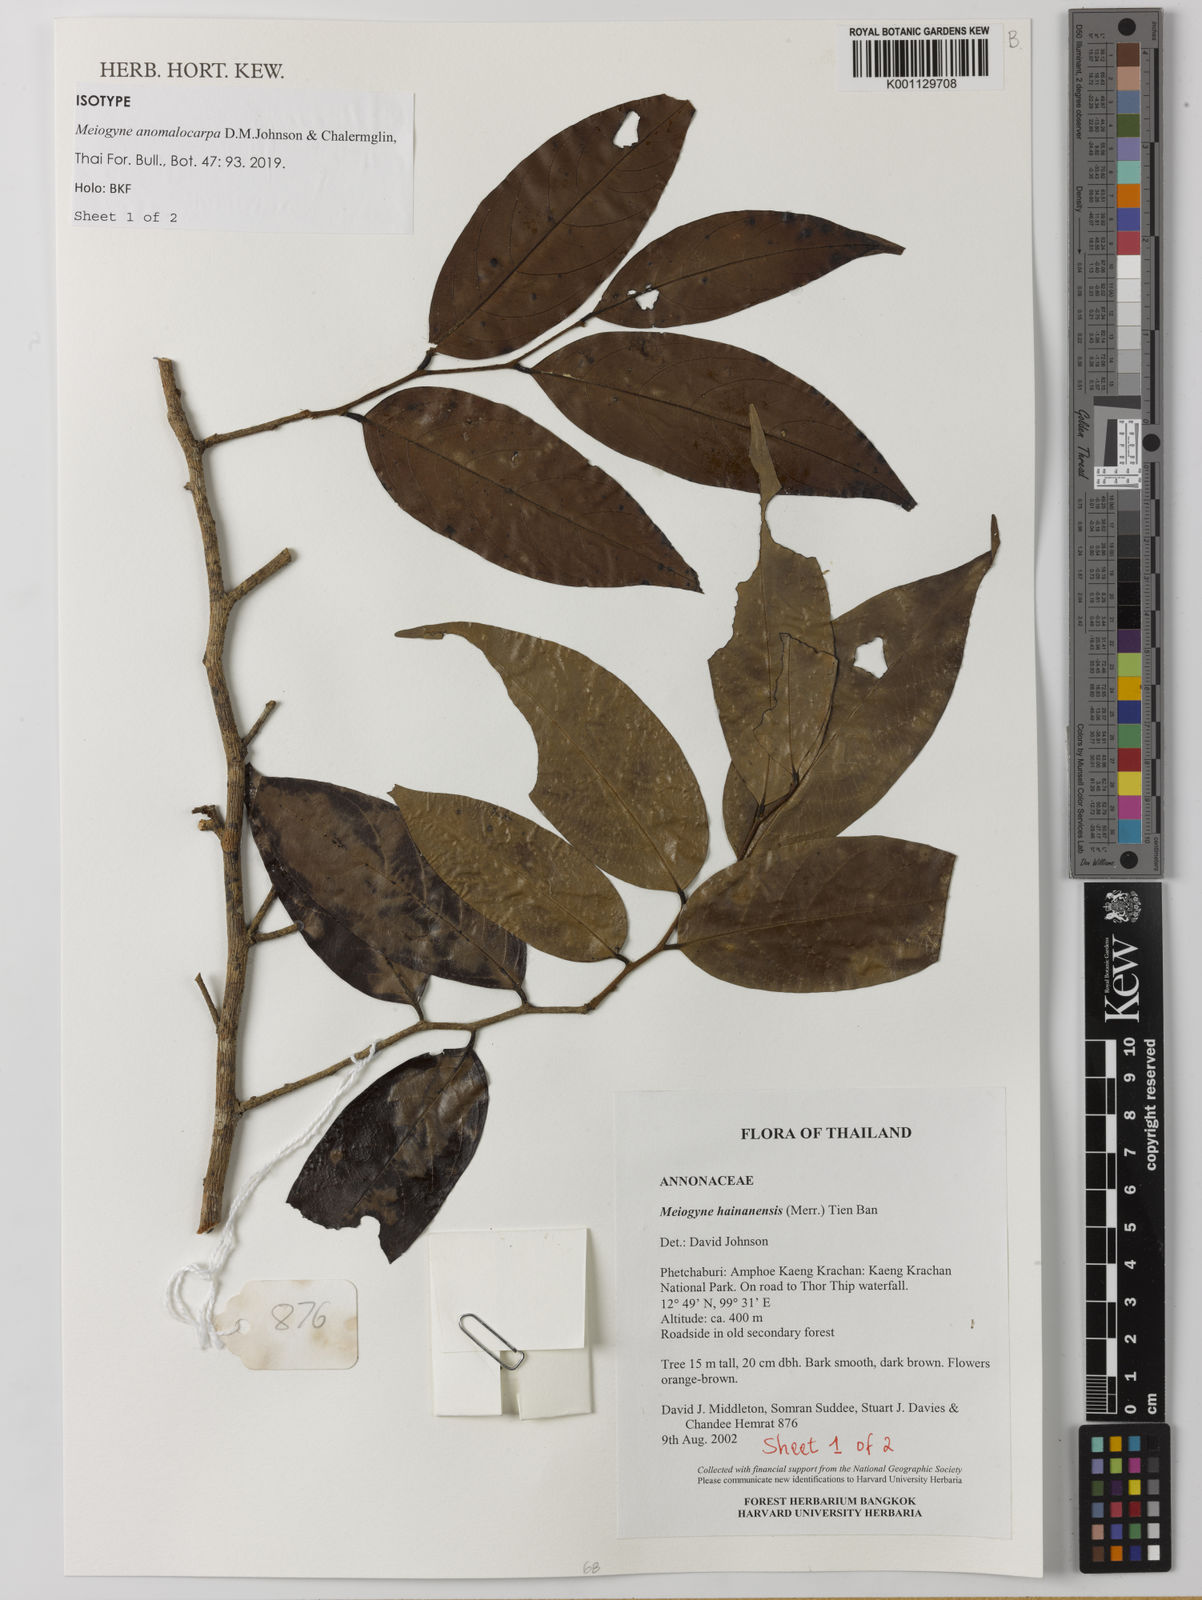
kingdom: Plantae
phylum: Tracheophyta
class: Magnoliopsida
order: Magnoliales
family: Annonaceae
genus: Meiogyne
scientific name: Meiogyne anomalocarpa
